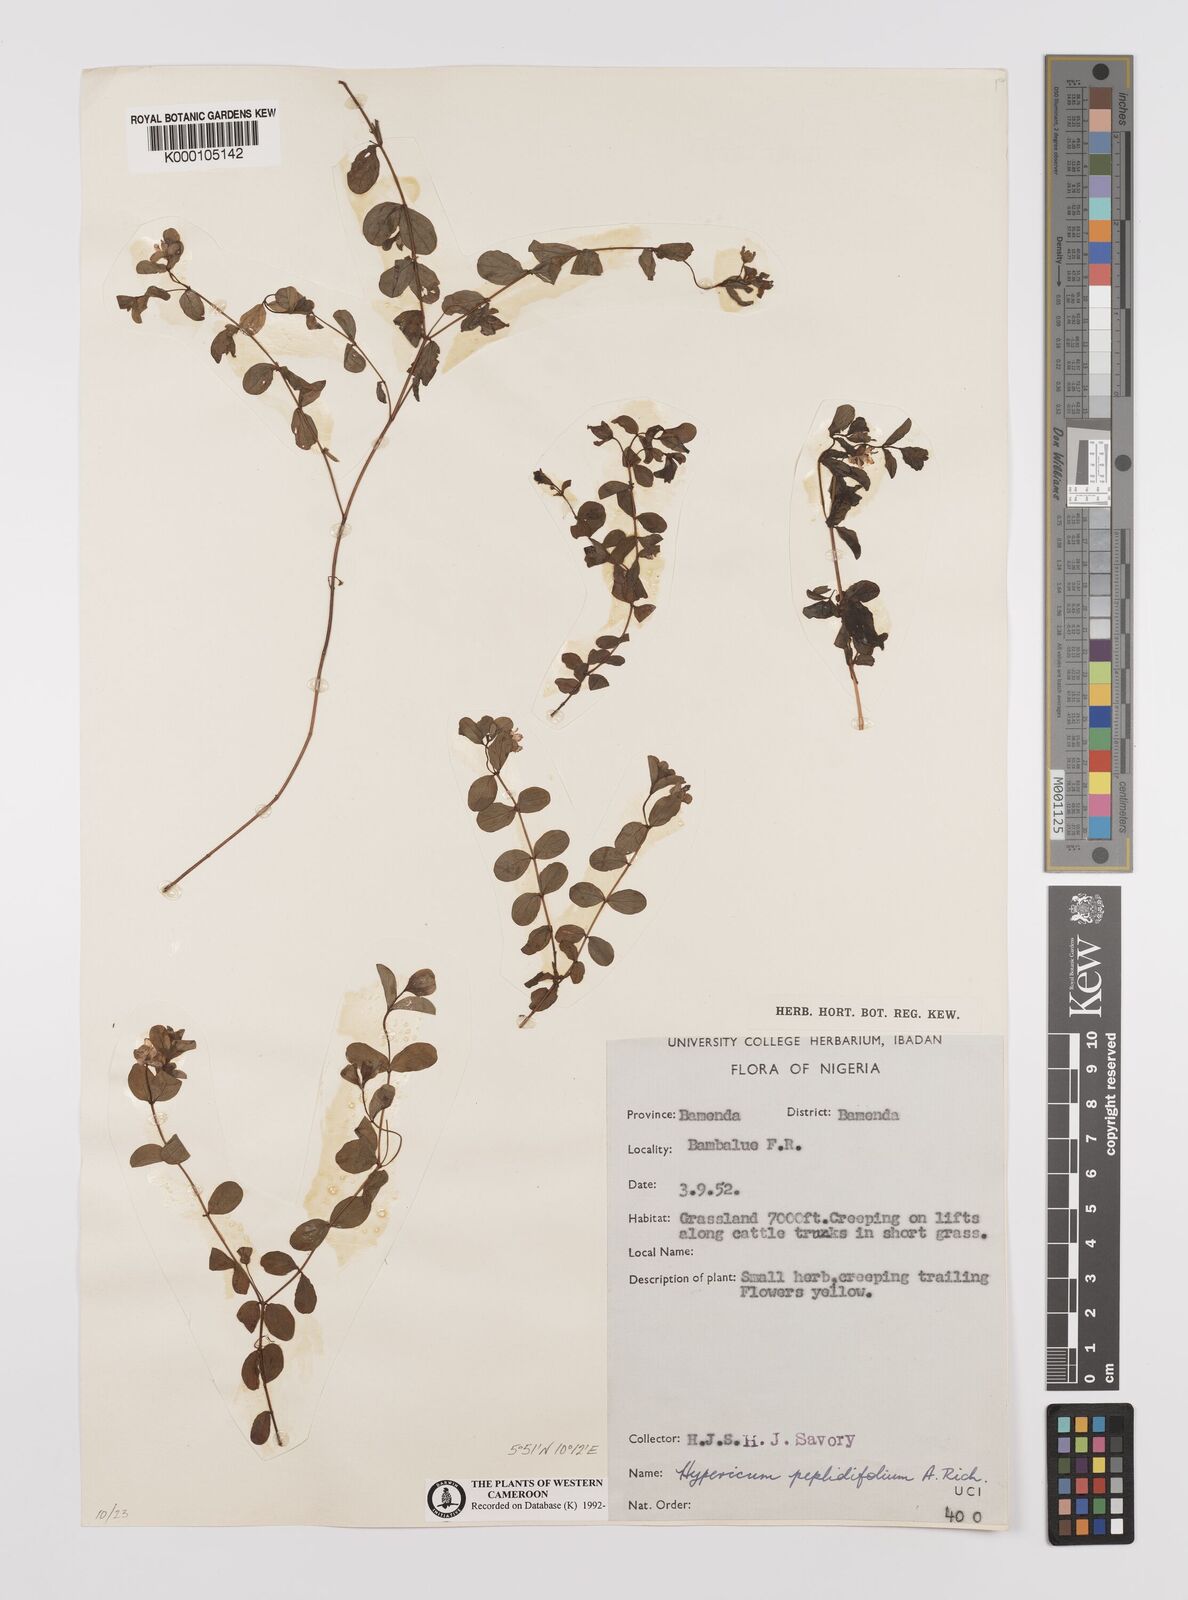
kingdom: Plantae
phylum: Tracheophyta
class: Magnoliopsida
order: Malpighiales
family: Hypericaceae
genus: Hypericum
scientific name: Hypericum peplidifolium
